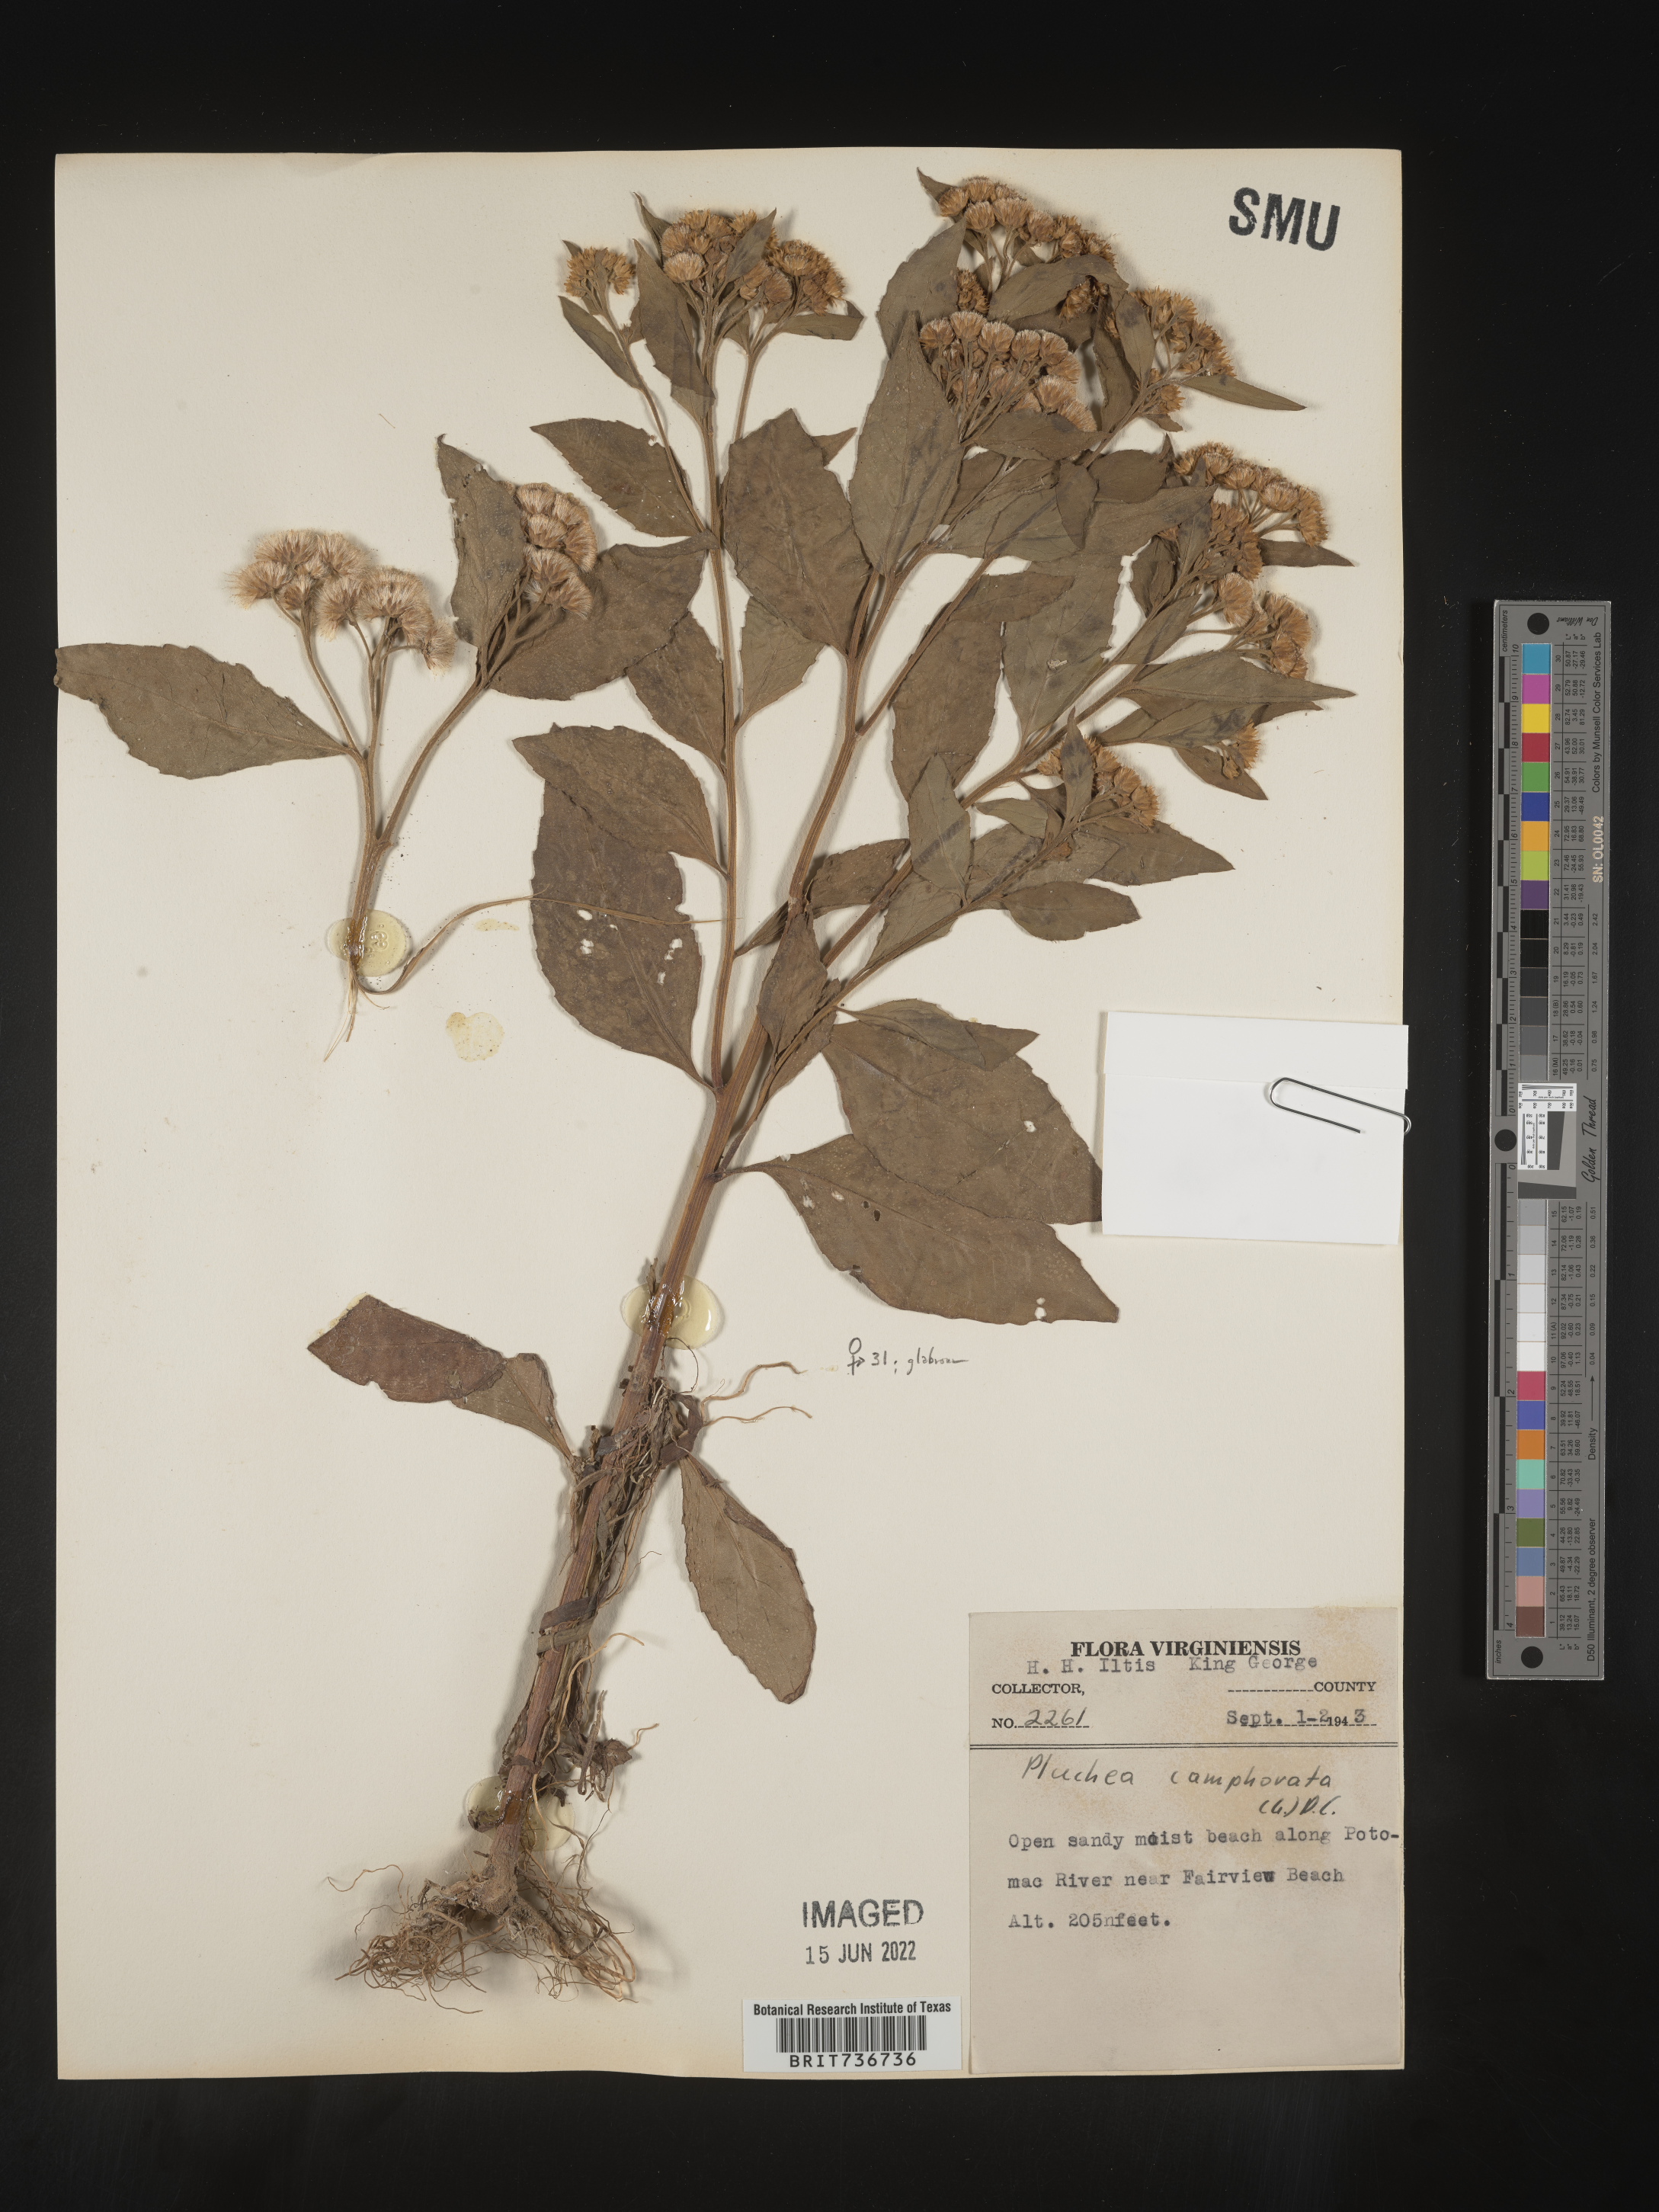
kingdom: Plantae
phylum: Tracheophyta
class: Magnoliopsida
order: Asterales
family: Asteraceae
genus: Pluchea
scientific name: Pluchea odorata
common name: Saltmarsh fleabane
